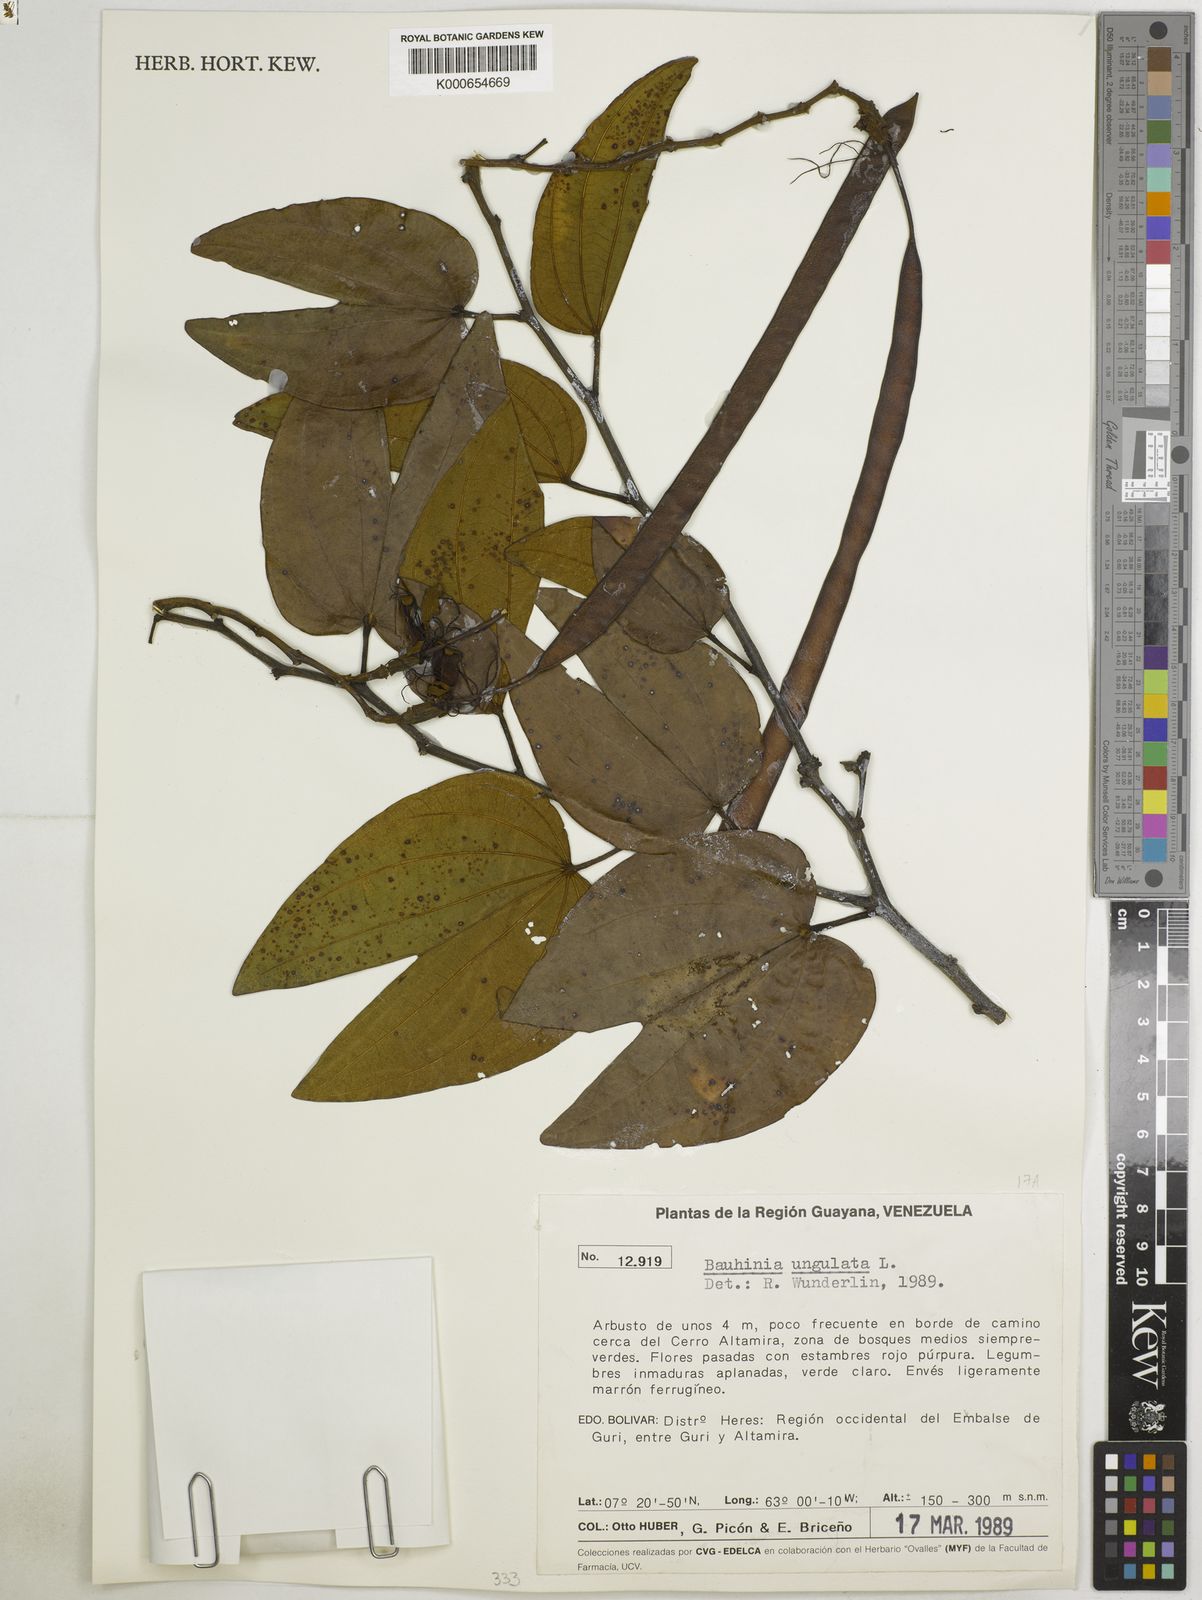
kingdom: Plantae
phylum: Tracheophyta
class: Magnoliopsida
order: Fabales
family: Fabaceae
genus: Bauhinia
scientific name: Bauhinia ungulata
